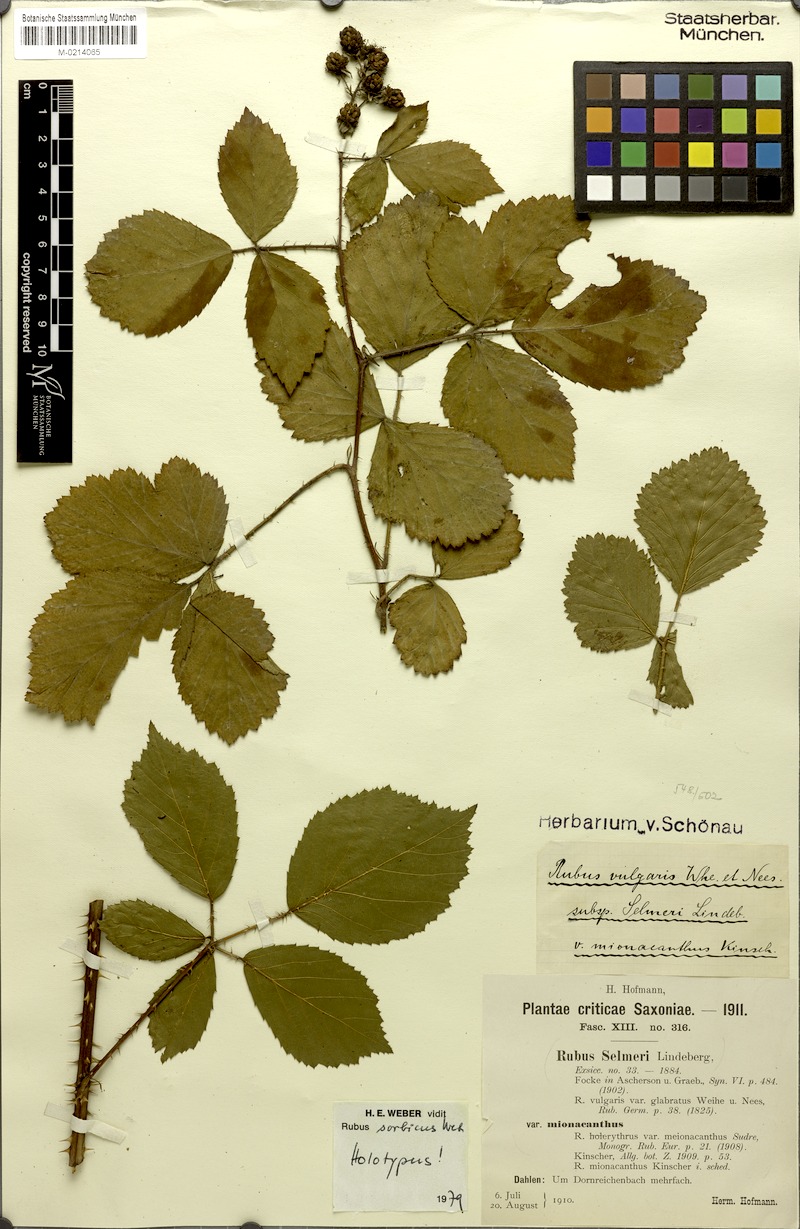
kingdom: Plantae
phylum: Tracheophyta
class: Magnoliopsida
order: Rosales
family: Rosaceae
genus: Rubus
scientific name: Rubus sorbicus
